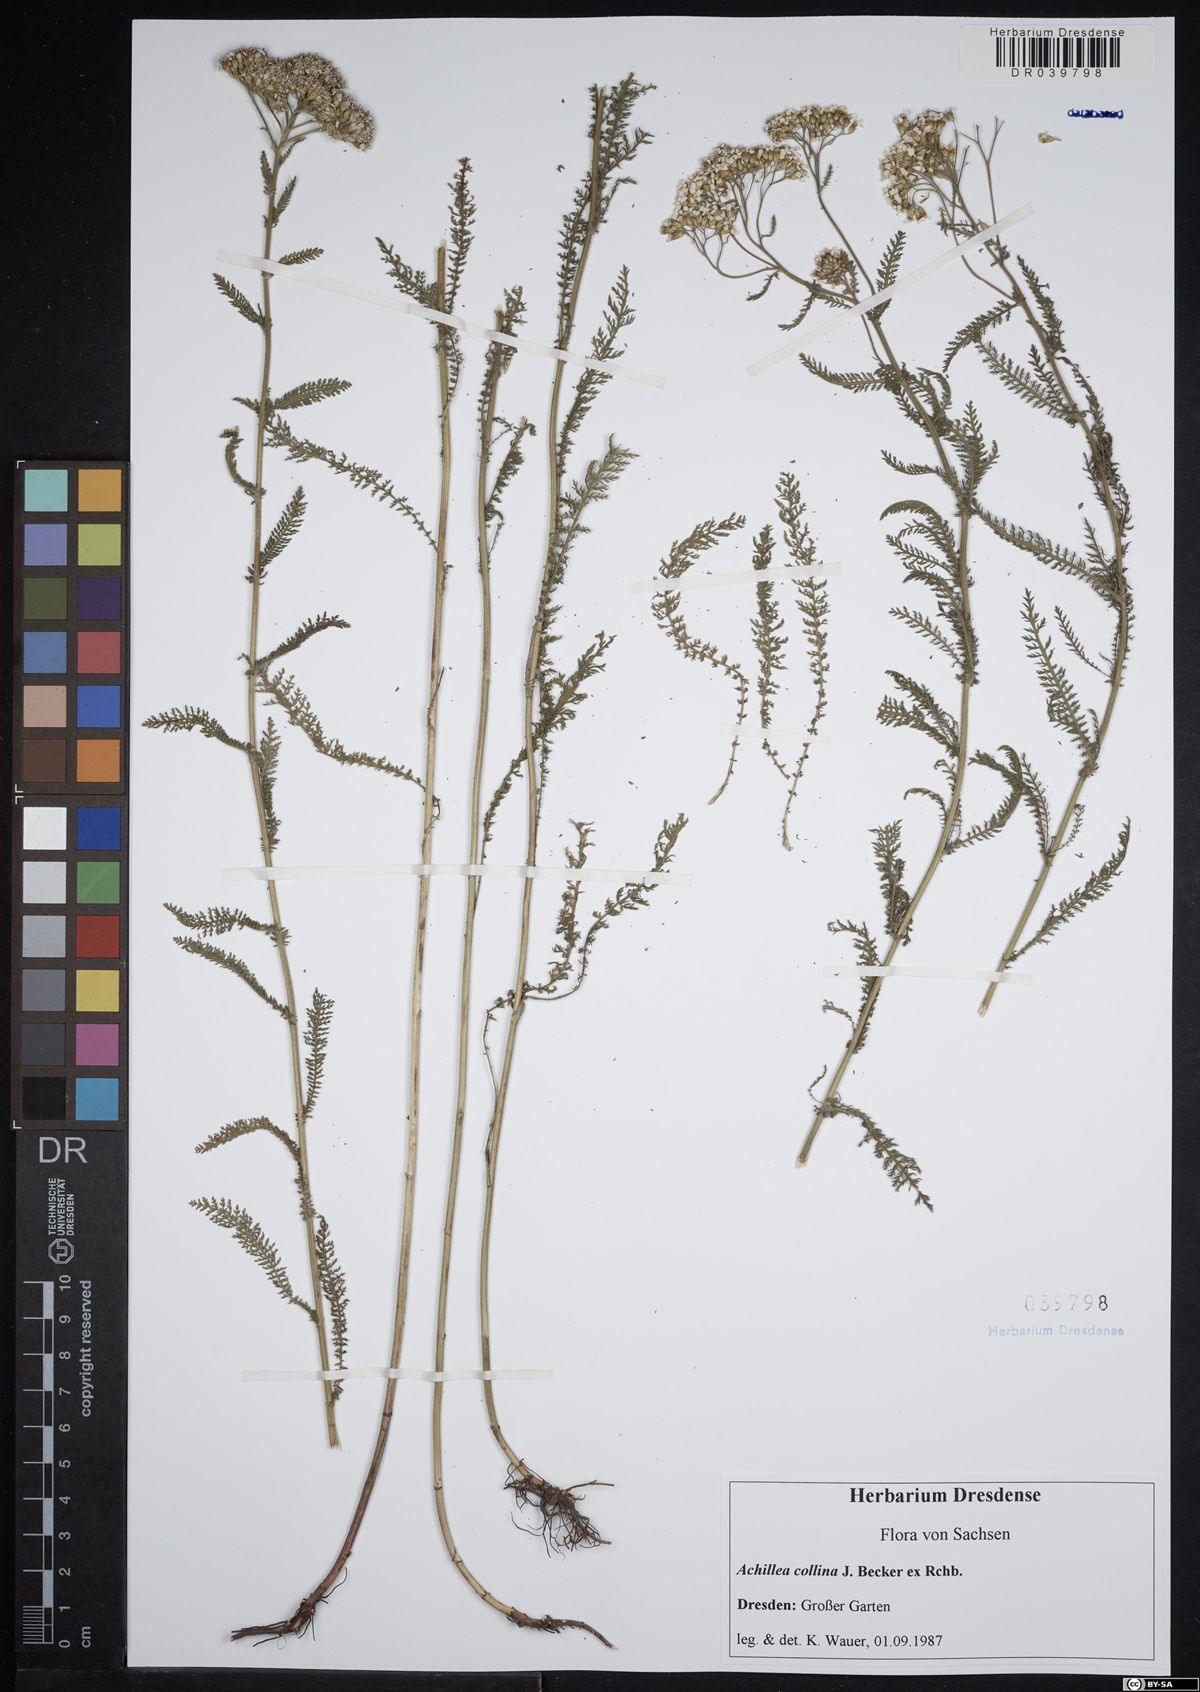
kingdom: Plantae
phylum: Tracheophyta
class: Magnoliopsida
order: Asterales
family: Asteraceae
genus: Achillea
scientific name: Achillea collina
